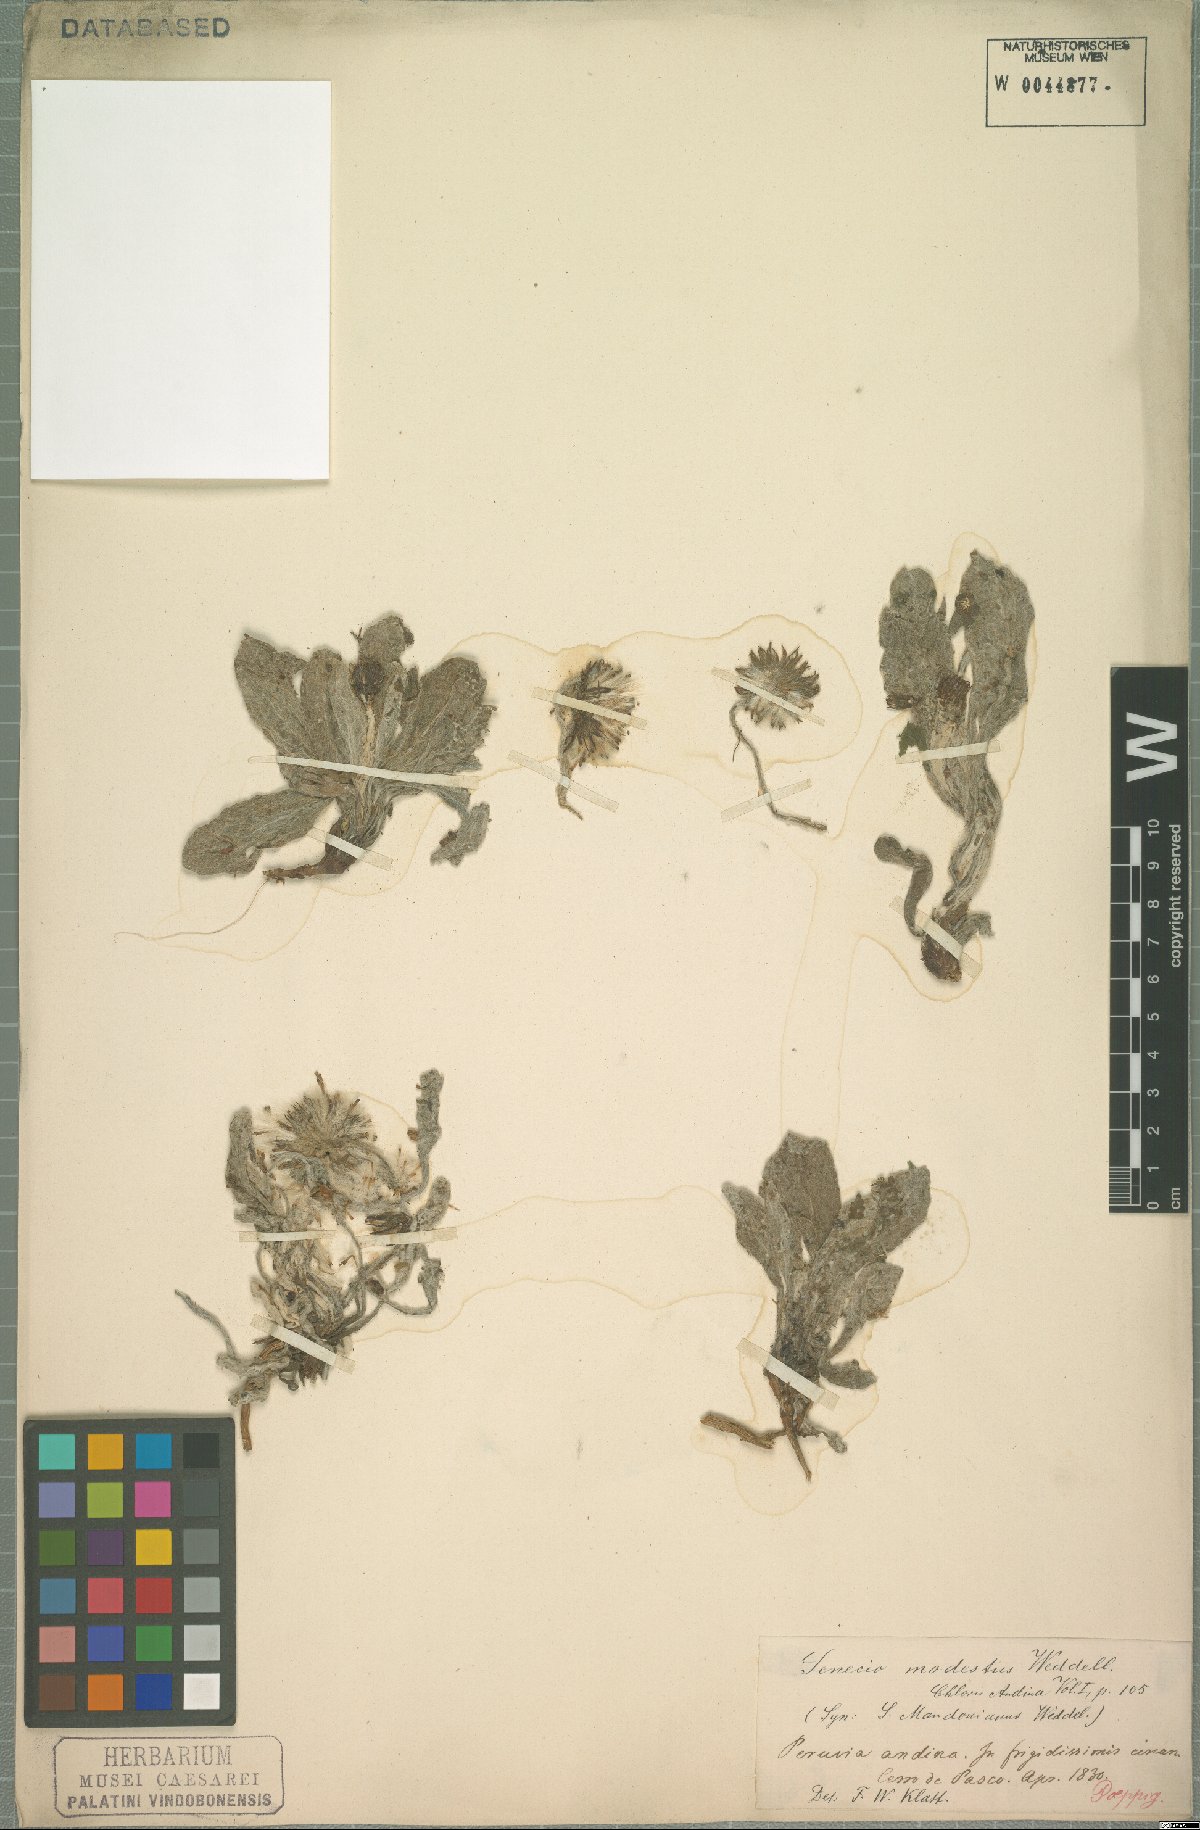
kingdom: Plantae
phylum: Tracheophyta
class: Magnoliopsida
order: Asterales
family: Asteraceae
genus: Culcitium
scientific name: Culcitium humile
